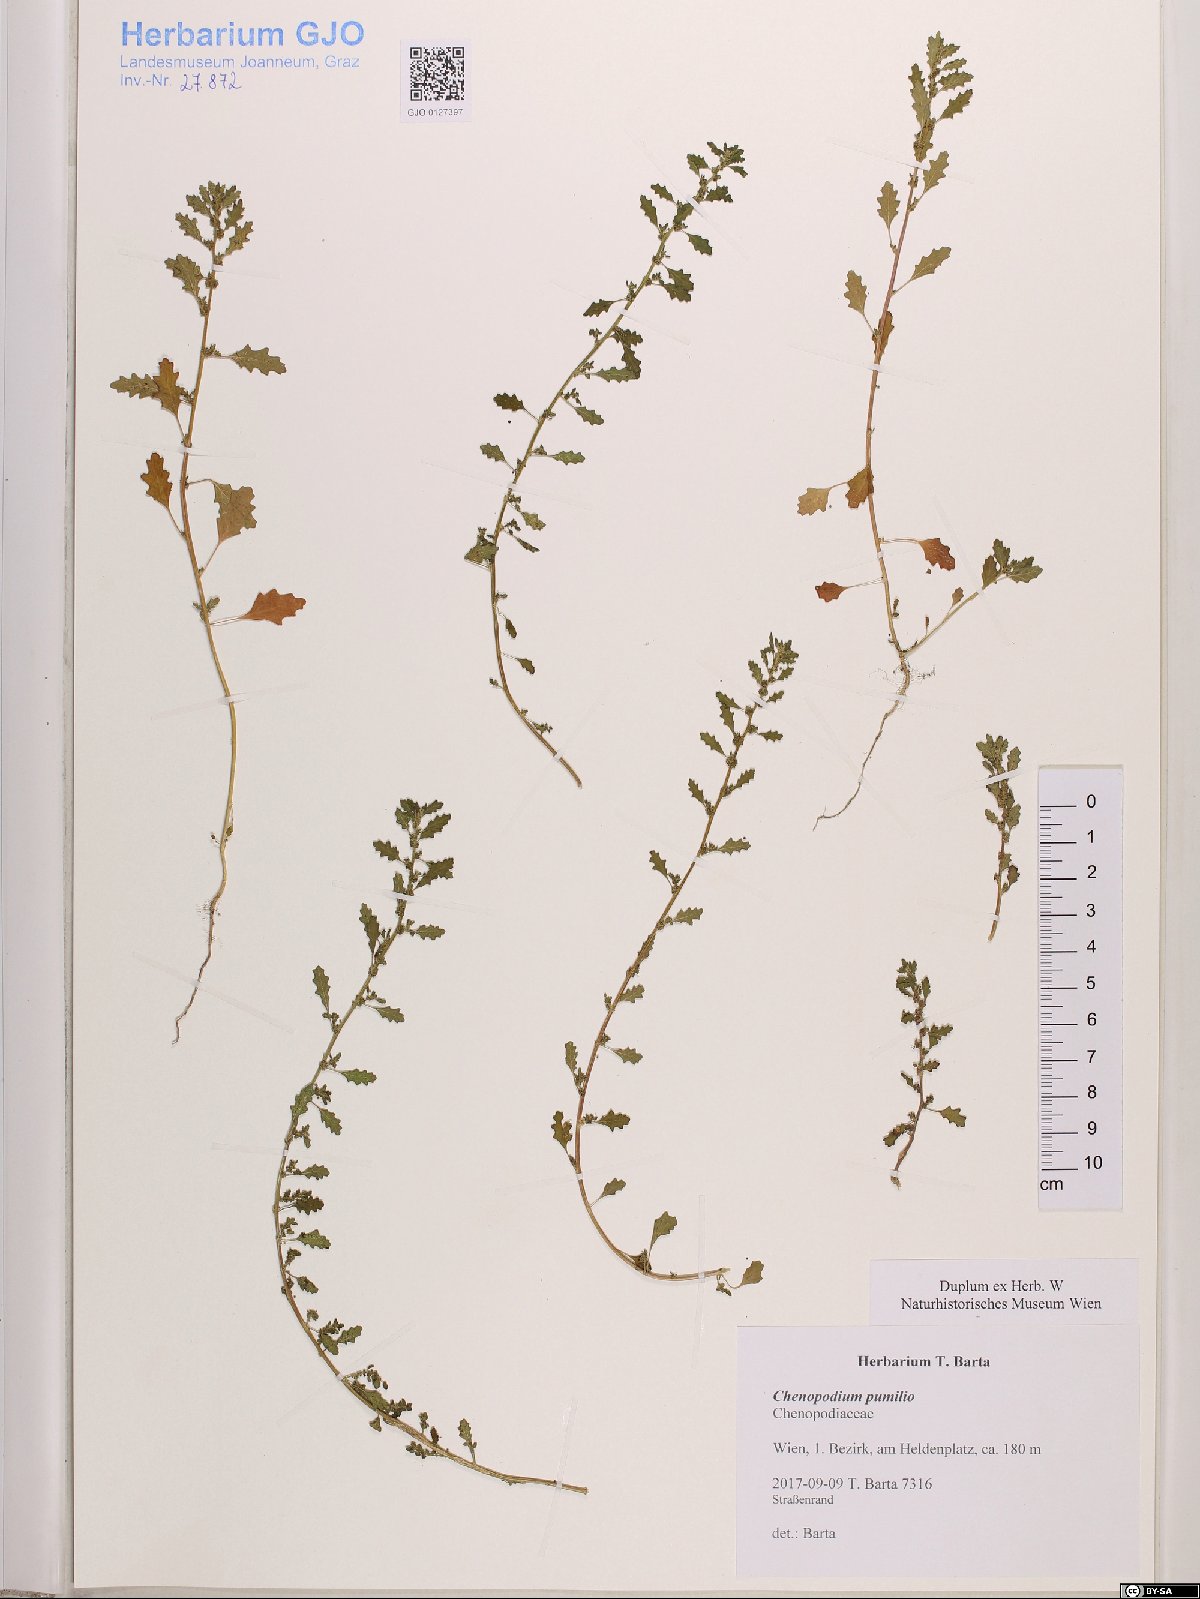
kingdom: Plantae
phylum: Tracheophyta
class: Magnoliopsida
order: Caryophyllales
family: Amaranthaceae
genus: Dysphania
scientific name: Dysphania pumilio
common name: Clammy goosefoot
